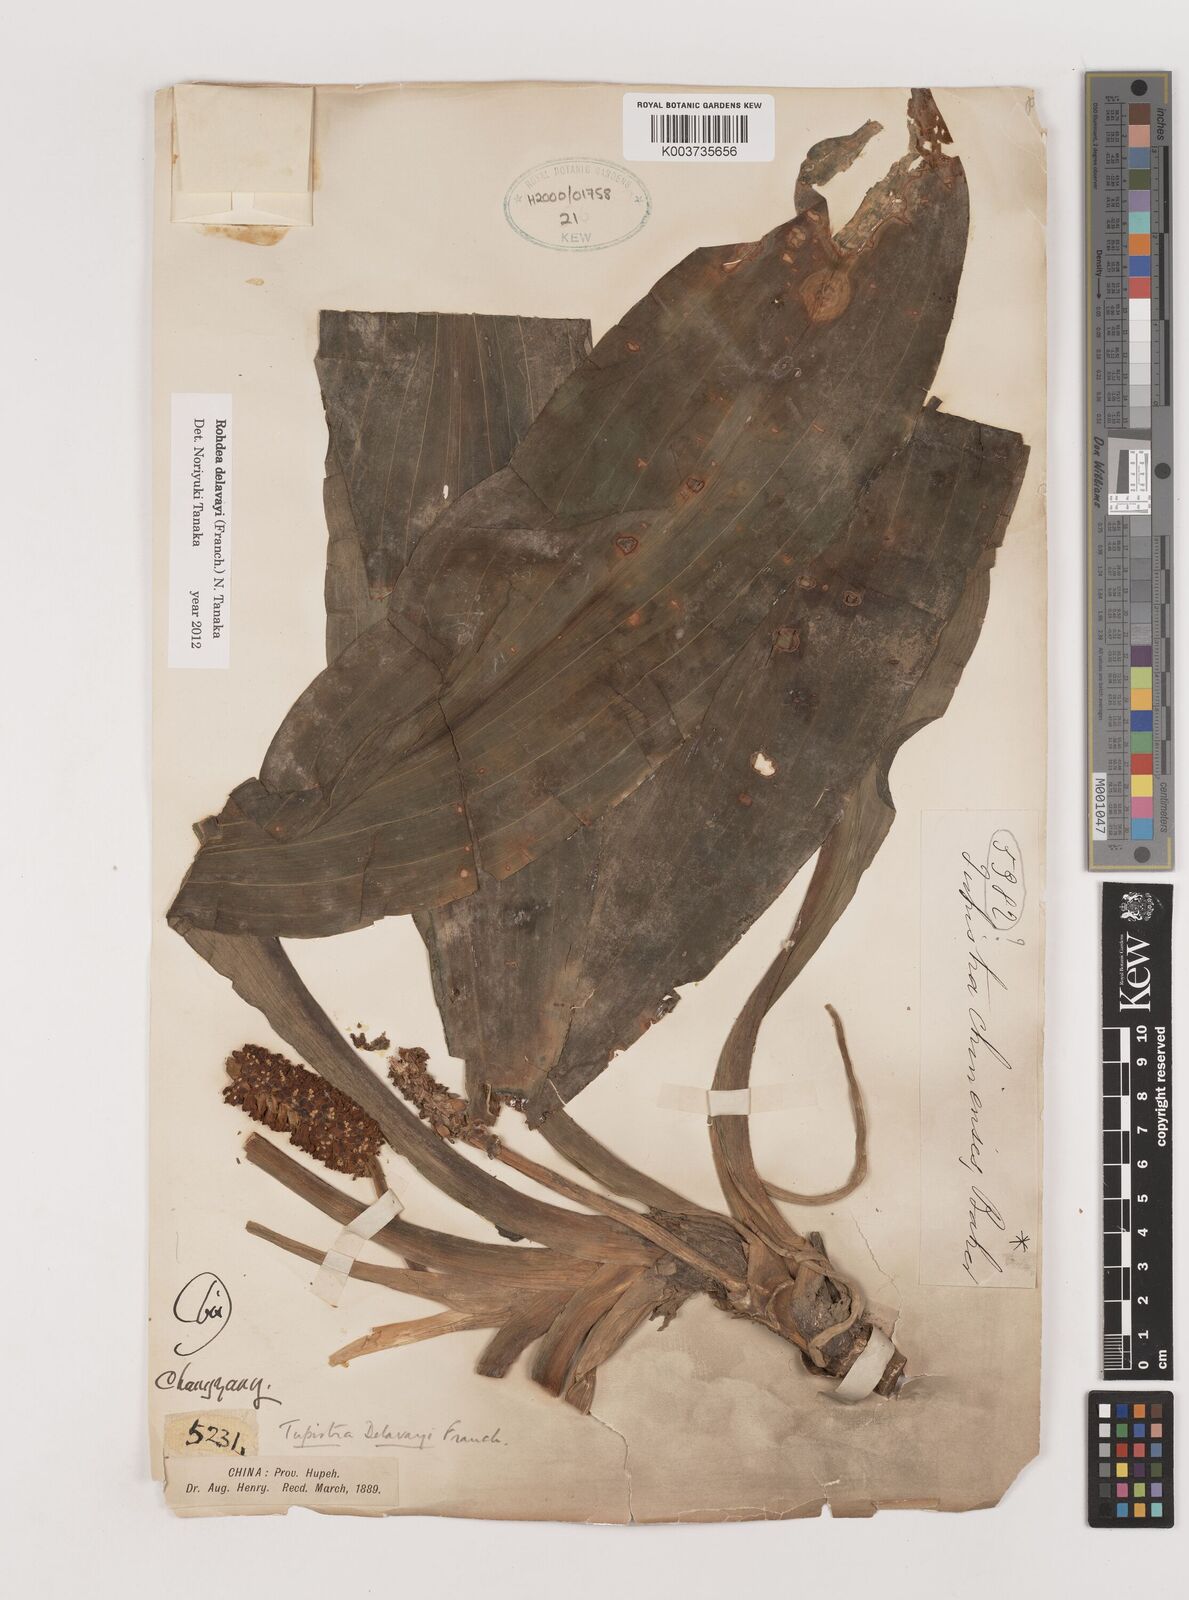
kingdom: Plantae
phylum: Tracheophyta
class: Liliopsida
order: Asparagales
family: Asparagaceae
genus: Rohdea
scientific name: Rohdea delavayi
